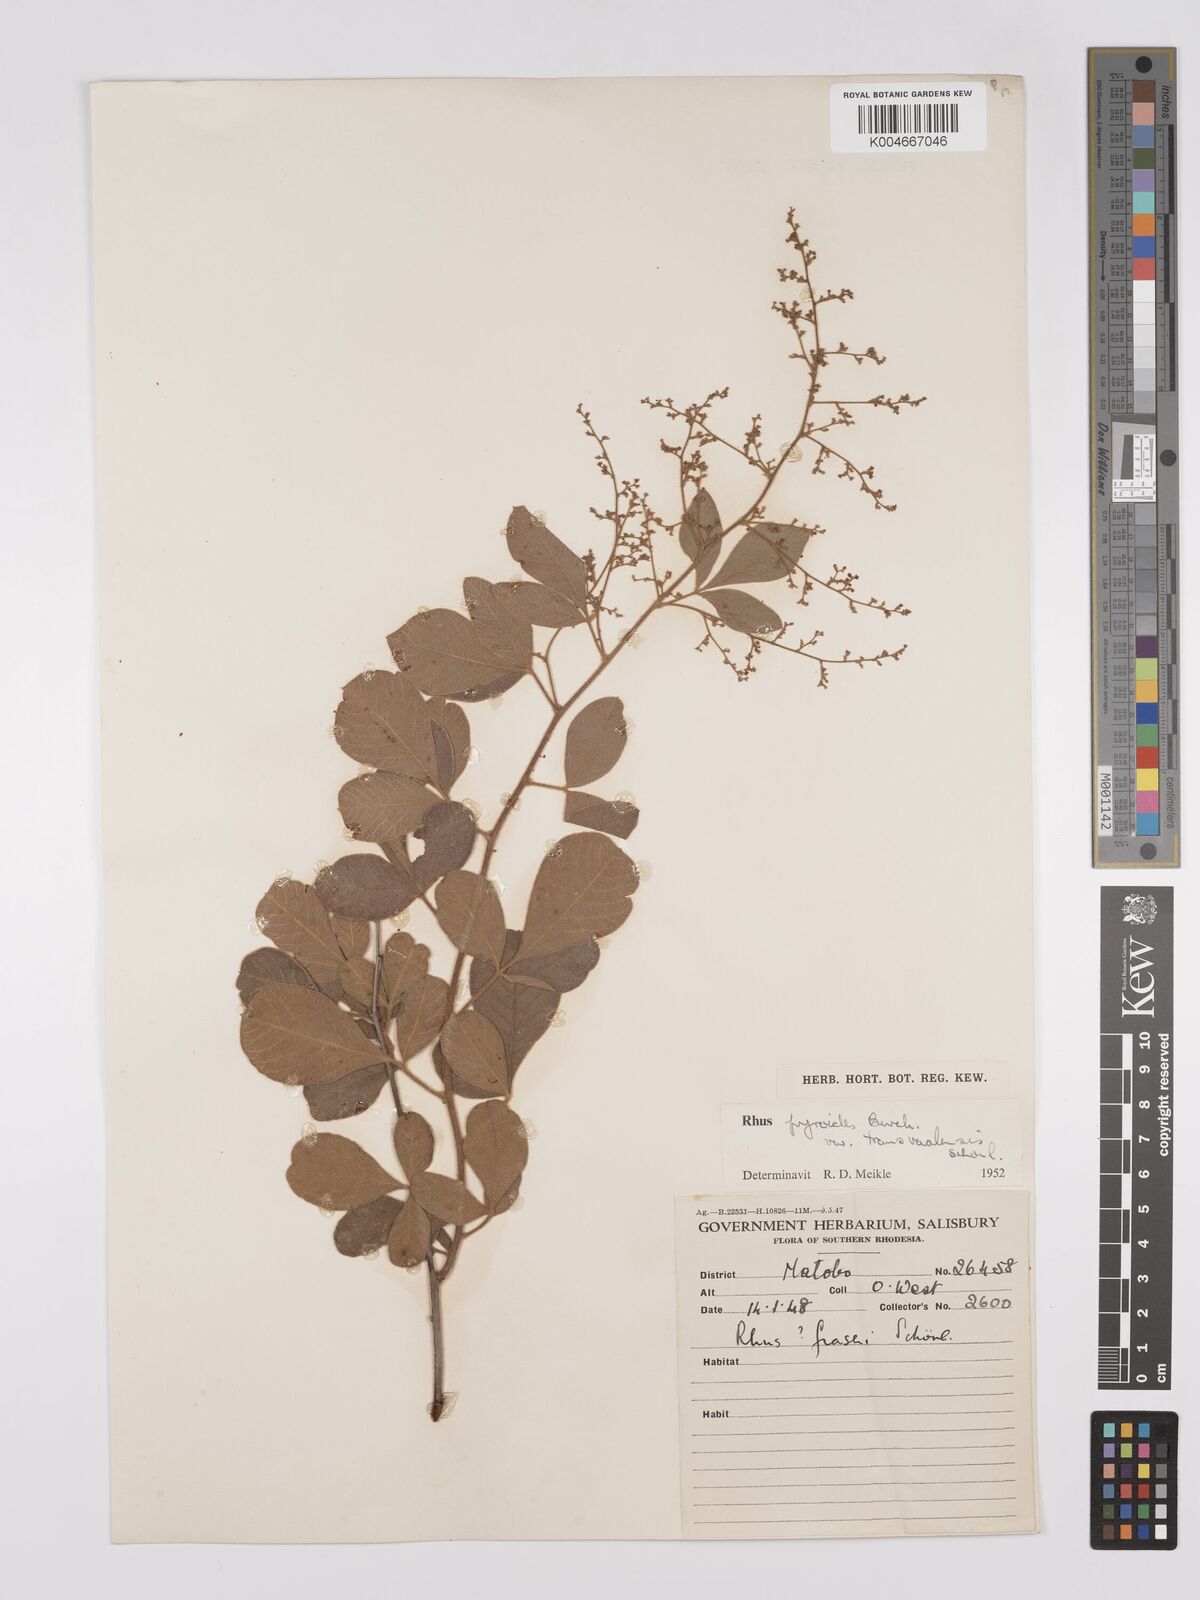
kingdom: Plantae
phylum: Tracheophyta
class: Magnoliopsida
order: Sapindales
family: Anacardiaceae
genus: Rhus
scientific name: Rhus
